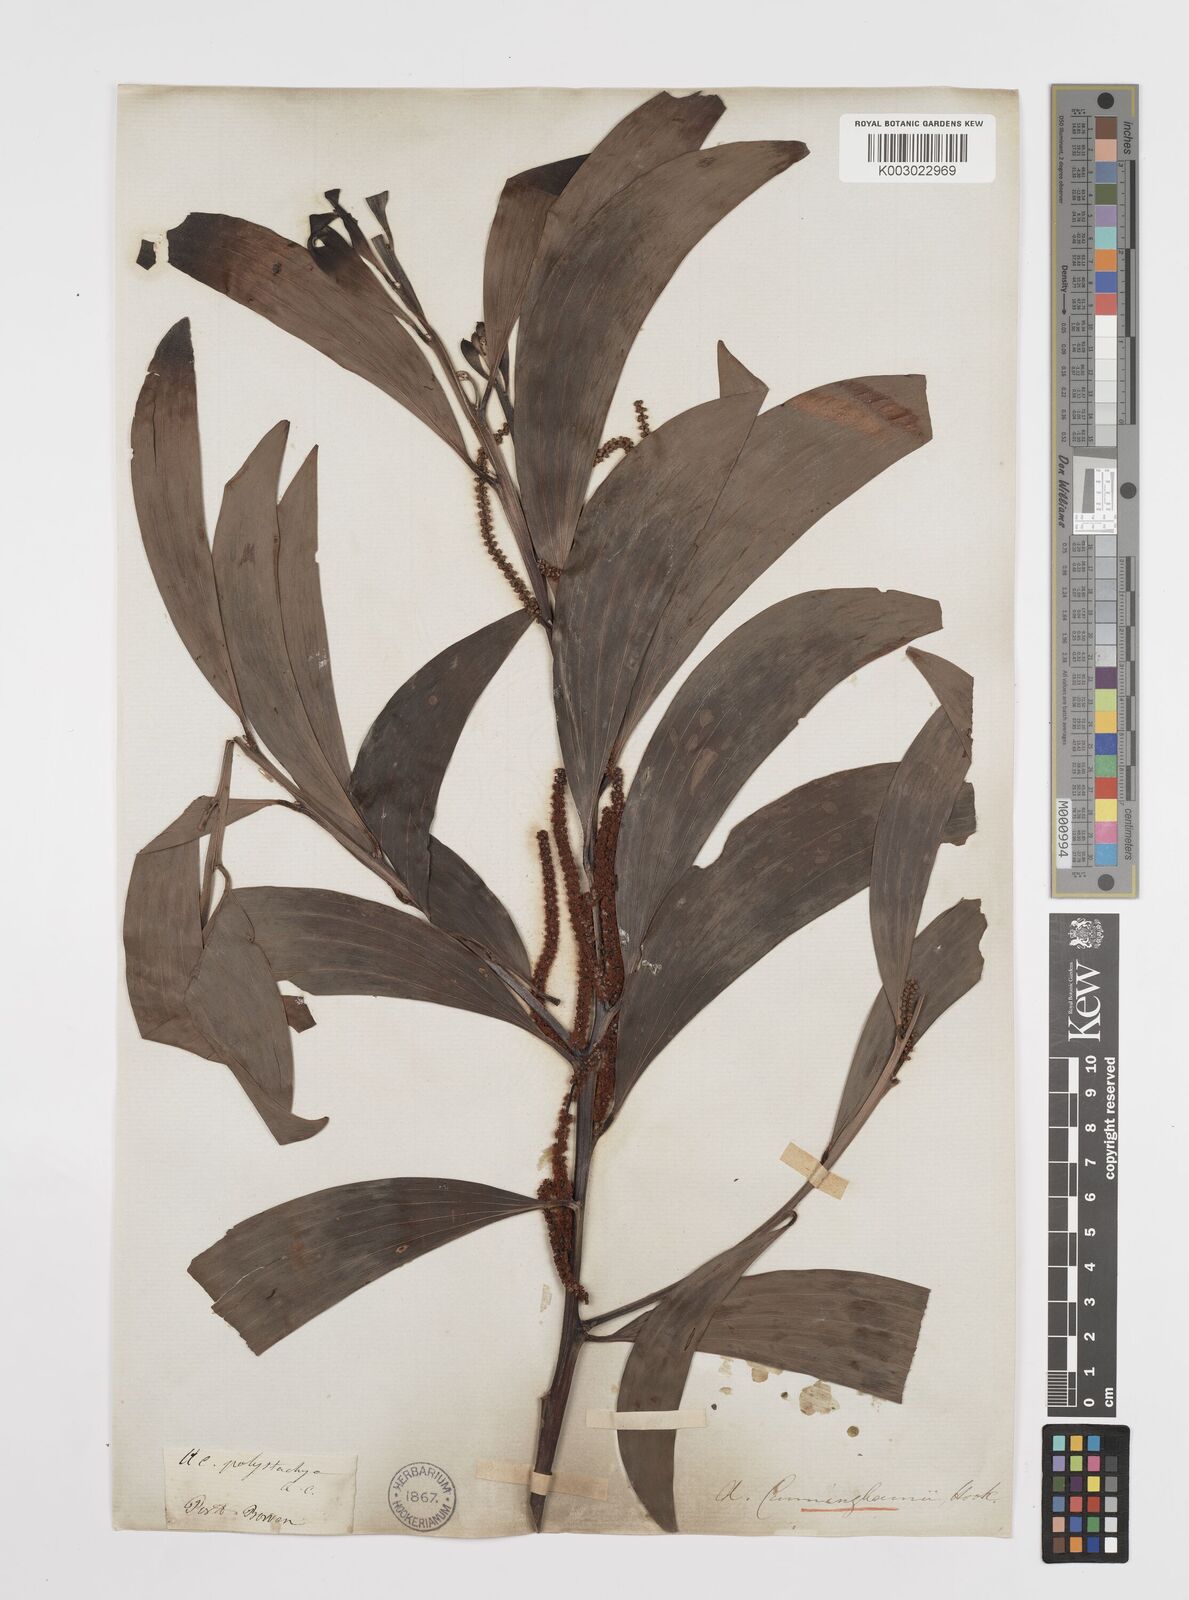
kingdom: Plantae
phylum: Tracheophyta
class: Magnoliopsida
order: Fabales
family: Fabaceae
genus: Acacia
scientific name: Acacia longispicata
